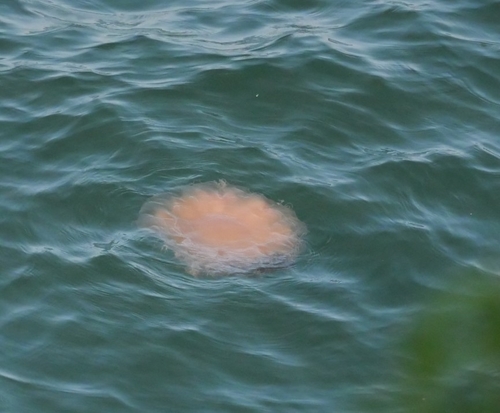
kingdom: Animalia
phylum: Cnidaria
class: Scyphozoa
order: Semaeostomeae
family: Cyaneidae
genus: Cyanea
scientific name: Cyanea nozakii
